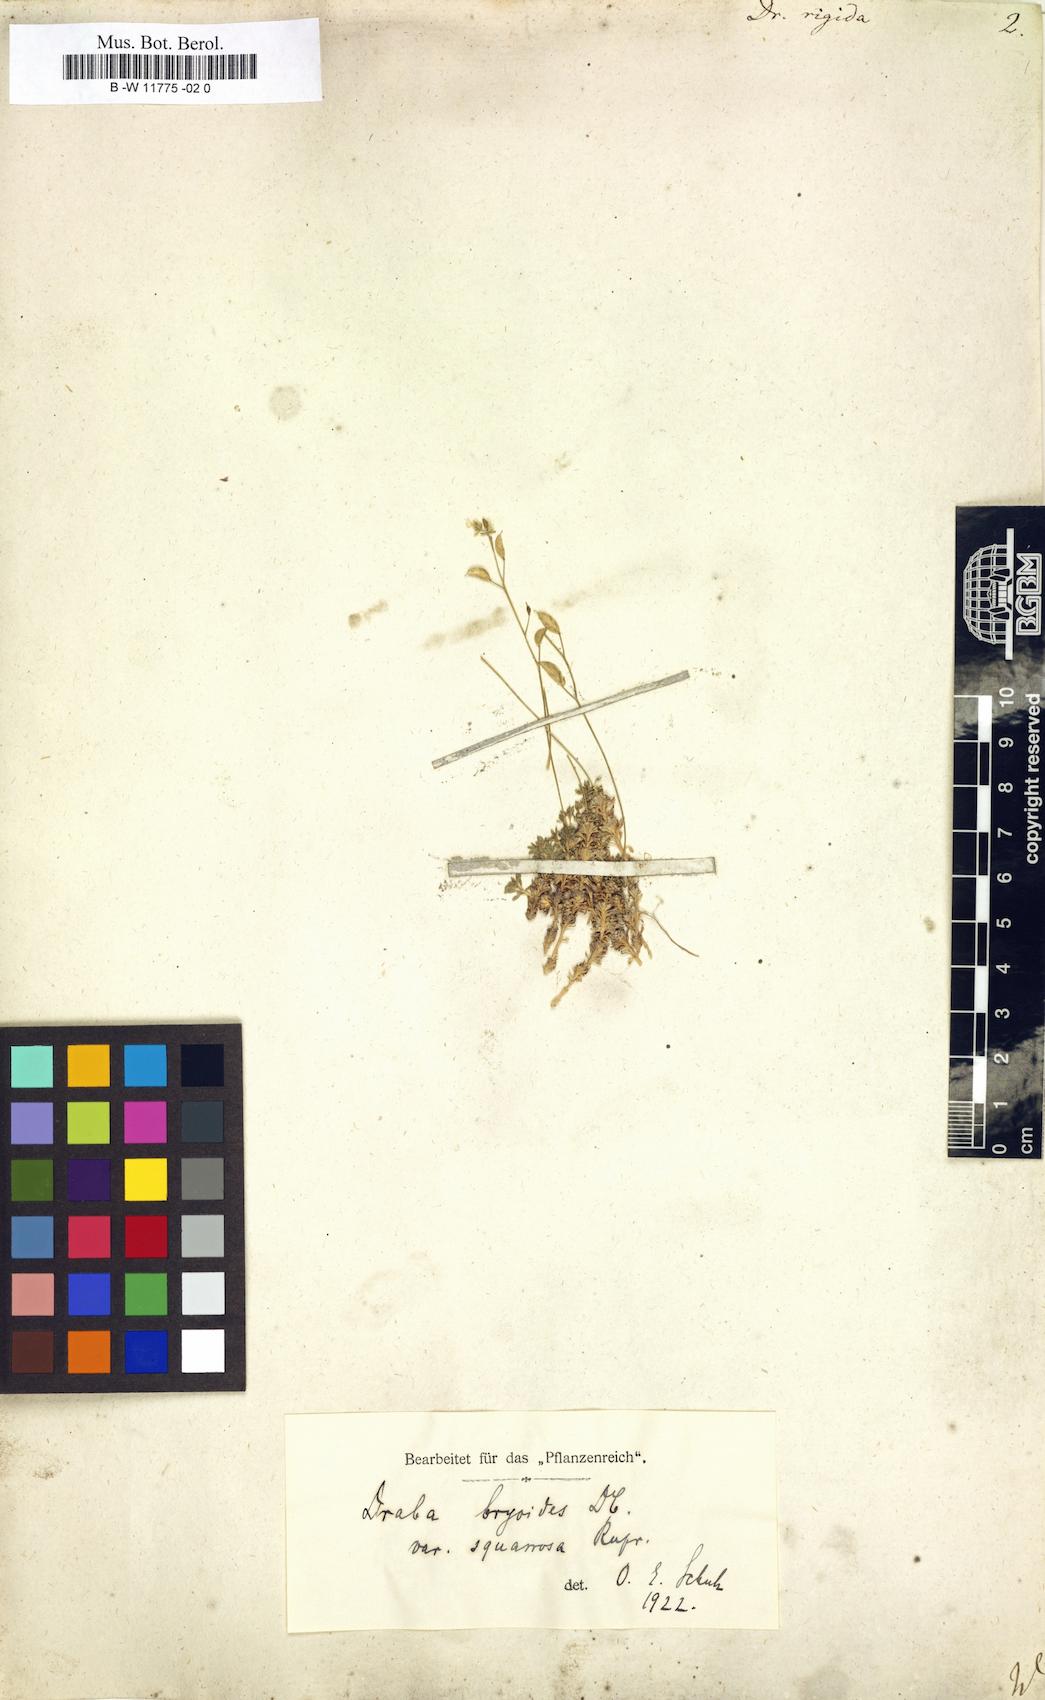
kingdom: Plantae
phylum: Tracheophyta
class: Magnoliopsida
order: Brassicales
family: Brassicaceae
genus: Draba
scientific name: Draba rigida
